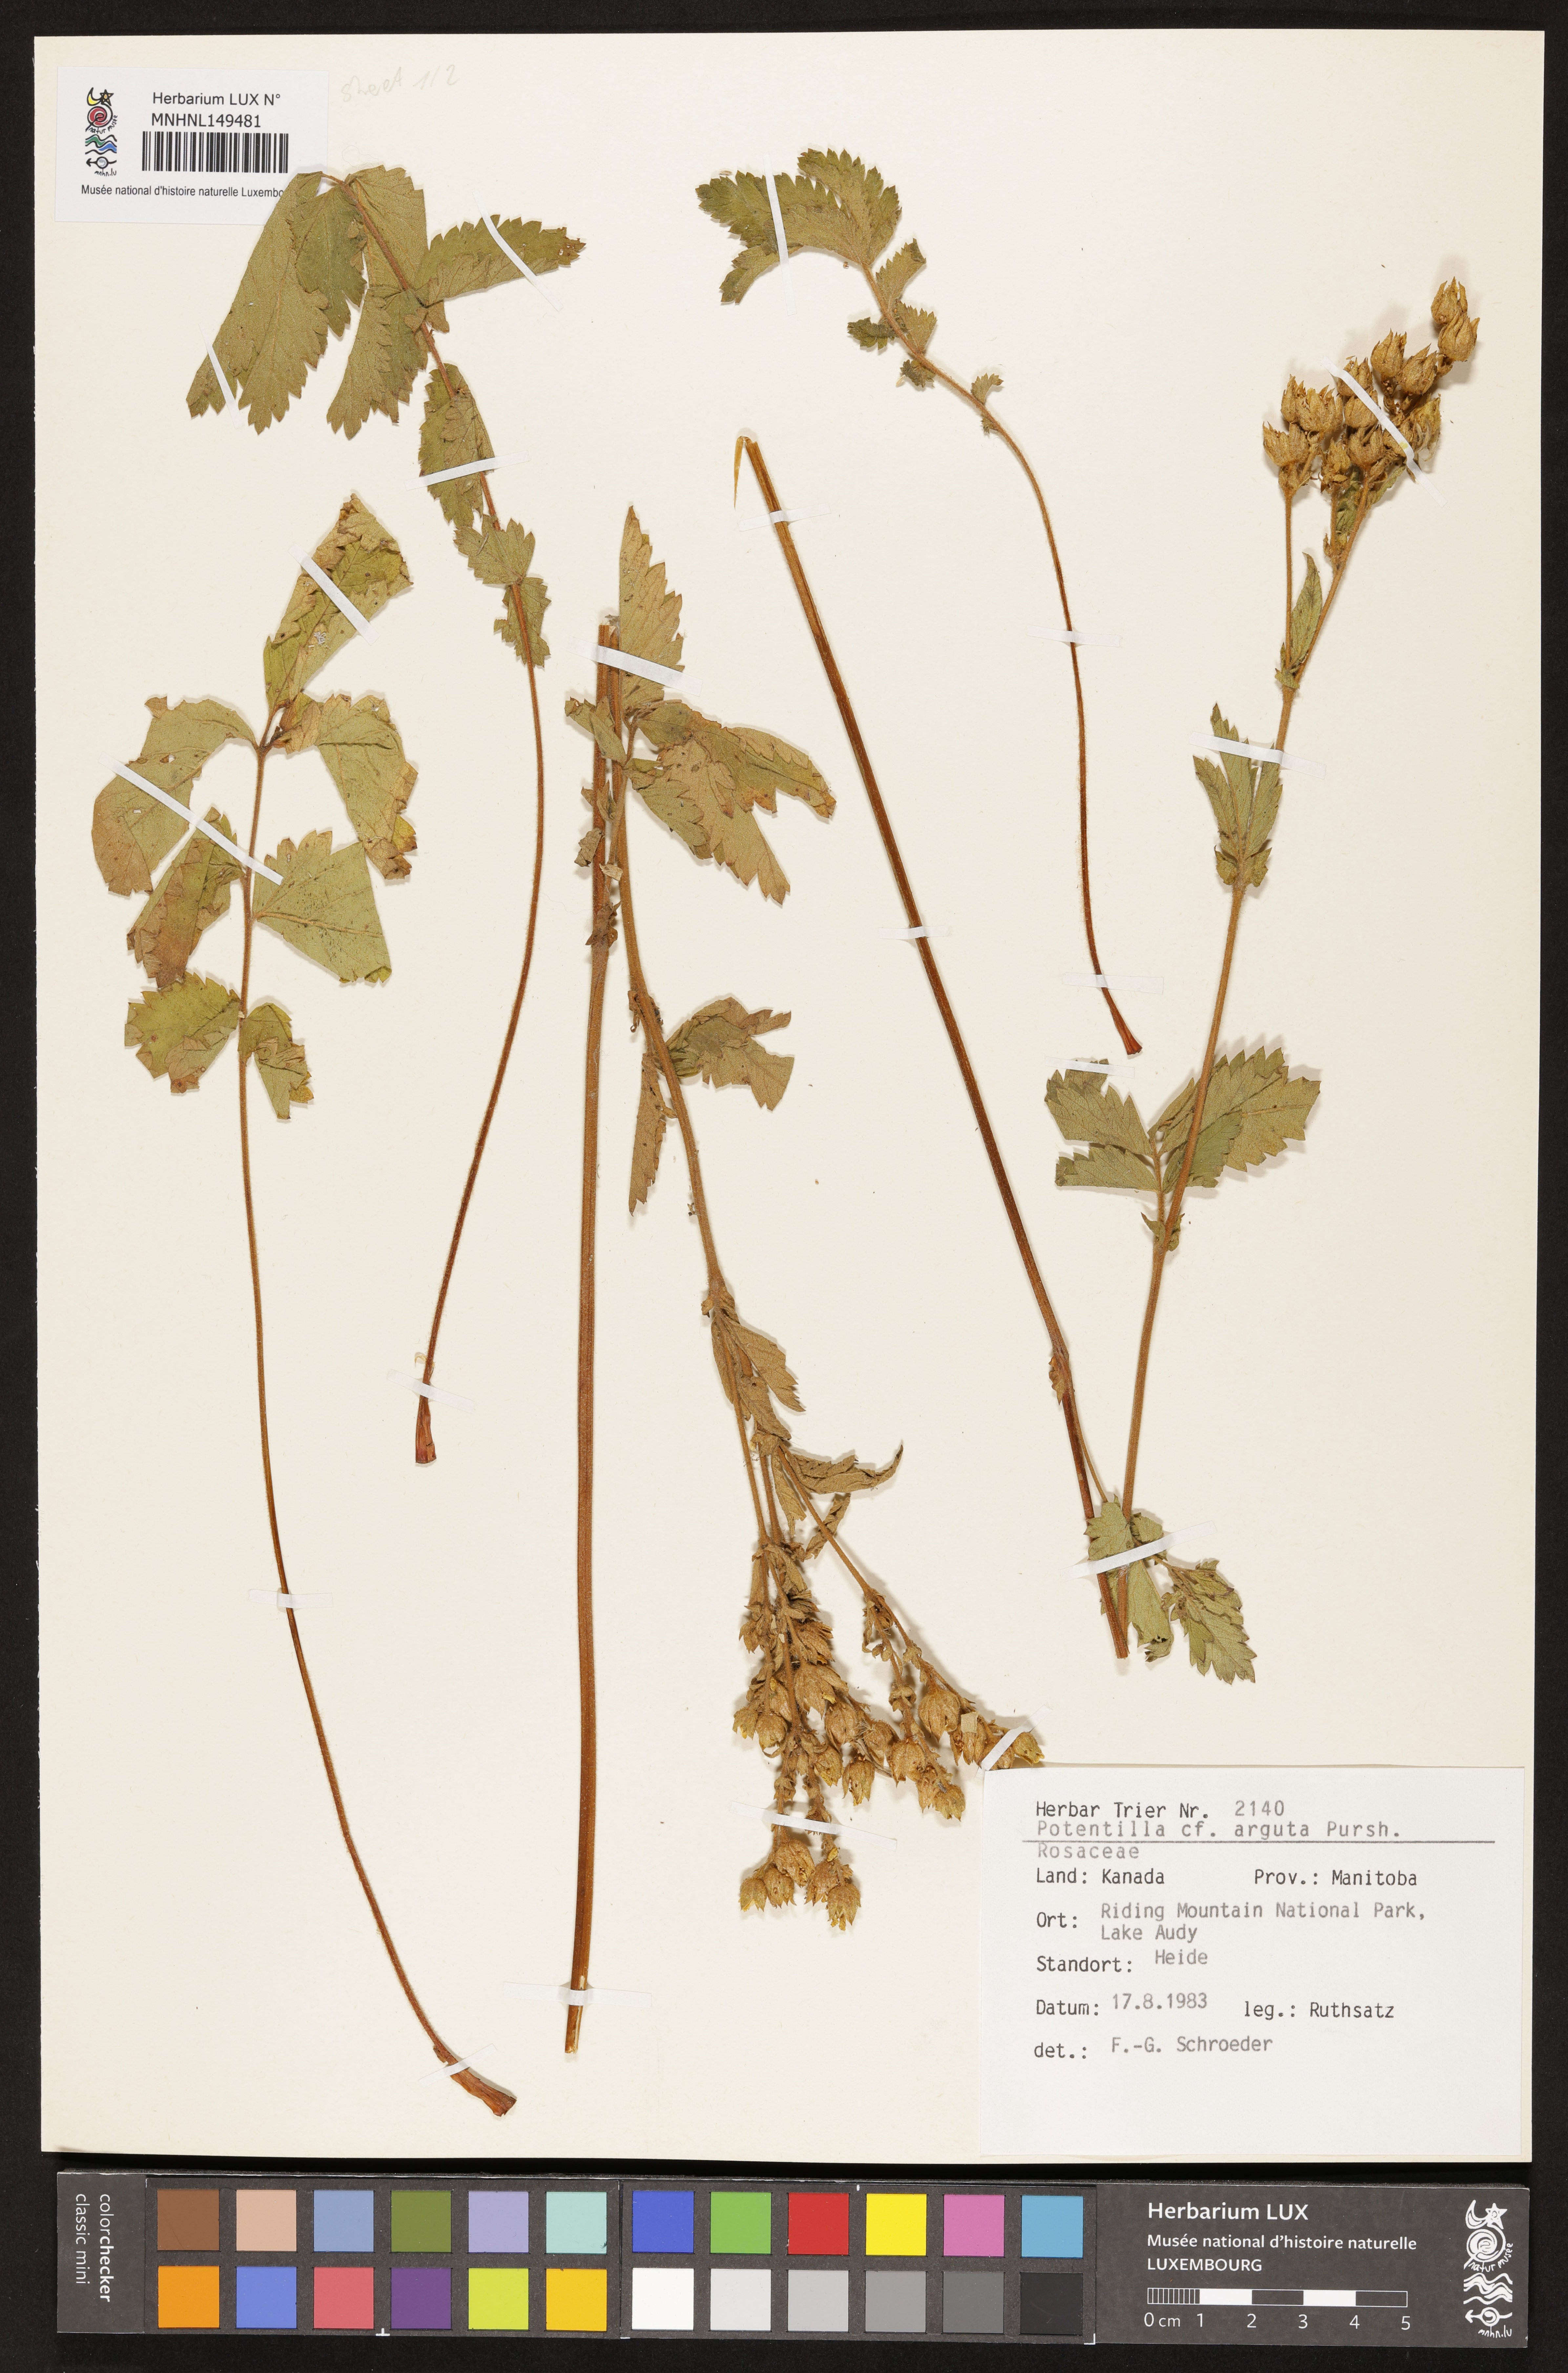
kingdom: Plantae
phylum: Tracheophyta
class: Magnoliopsida
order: Rosales
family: Rosaceae
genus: Drymocallis
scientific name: Drymocallis arguta
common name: Tall cinquefoil
